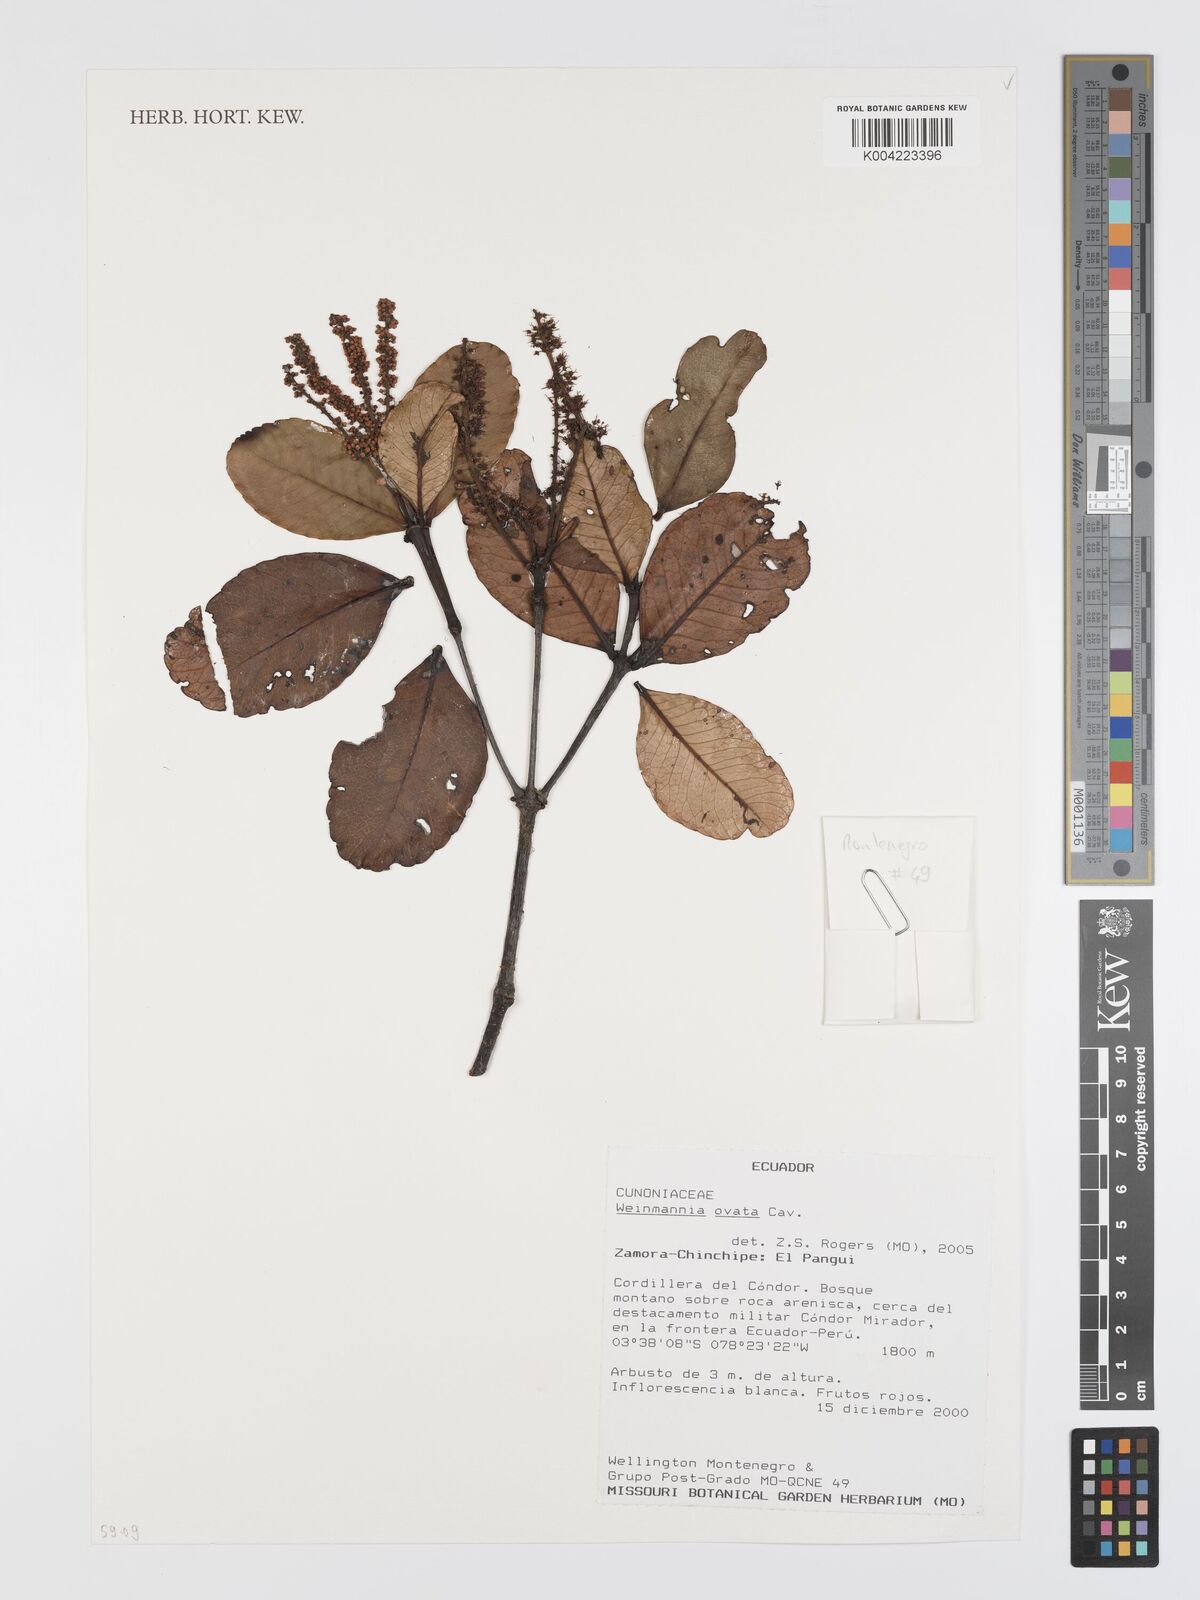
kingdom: Plantae
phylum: Tracheophyta
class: Magnoliopsida
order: Oxalidales
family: Cunoniaceae
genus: Weinmannia
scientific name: Weinmannia ovata
